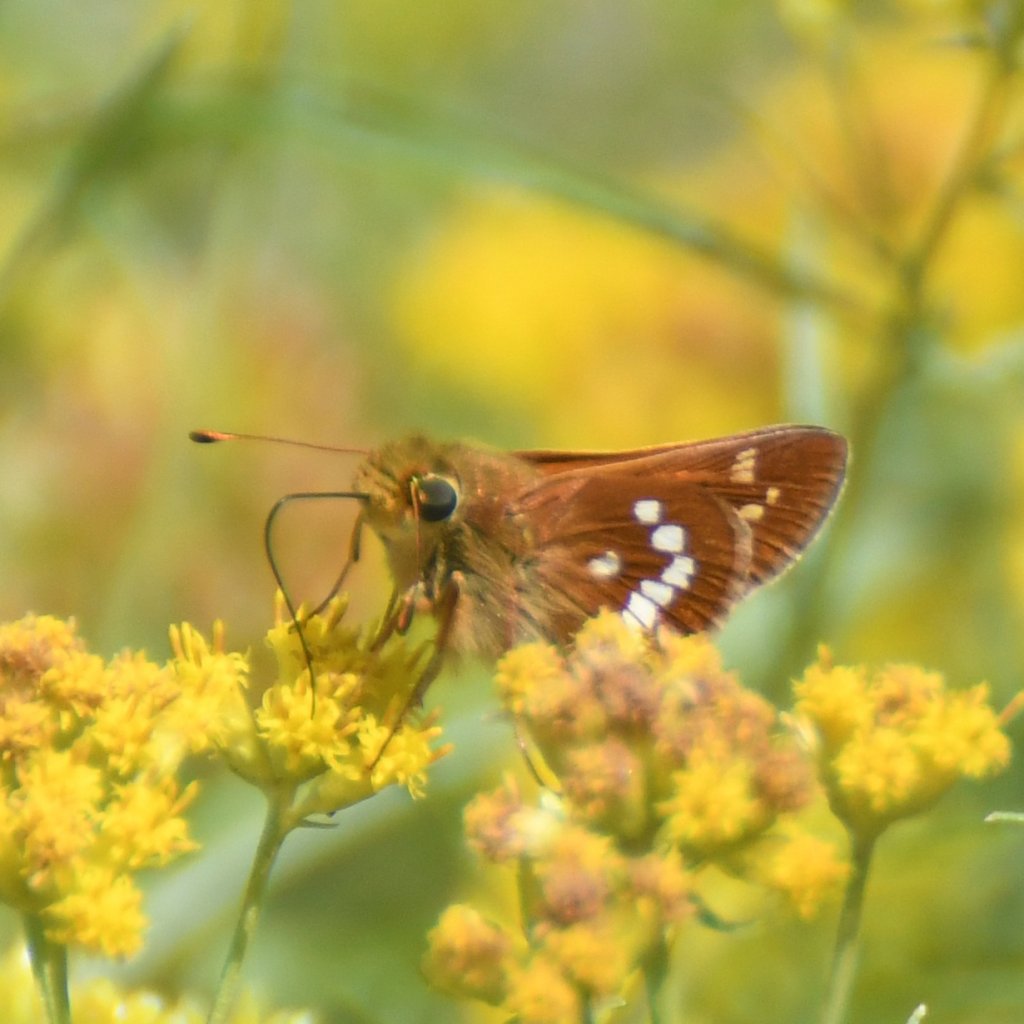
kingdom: Animalia
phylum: Arthropoda
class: Insecta
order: Lepidoptera
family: Hesperiidae
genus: Hesperia
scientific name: Hesperia leonardus
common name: Leonard's Skipper
